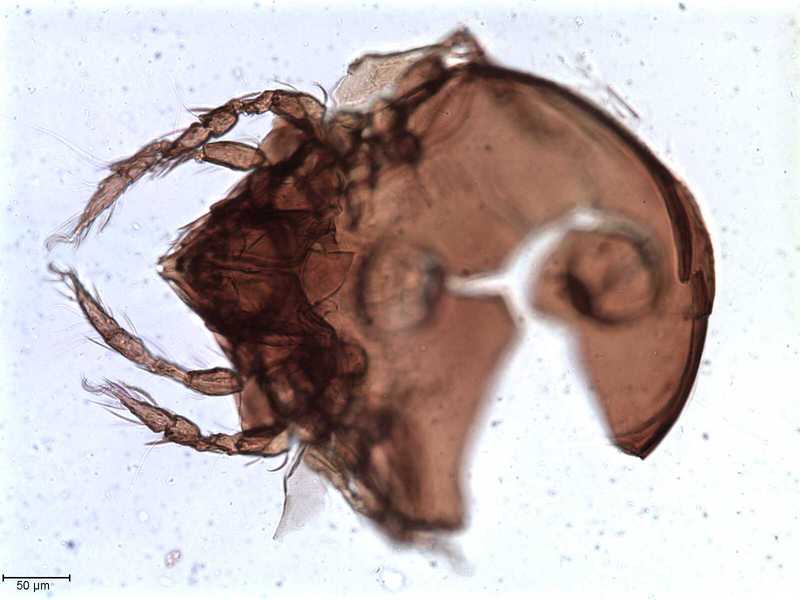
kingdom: Animalia
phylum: Arthropoda
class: Arachnida
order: Sarcoptiformes
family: Tegoribatidae
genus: Plakoribates
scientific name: Plakoribates multicuspidatus
